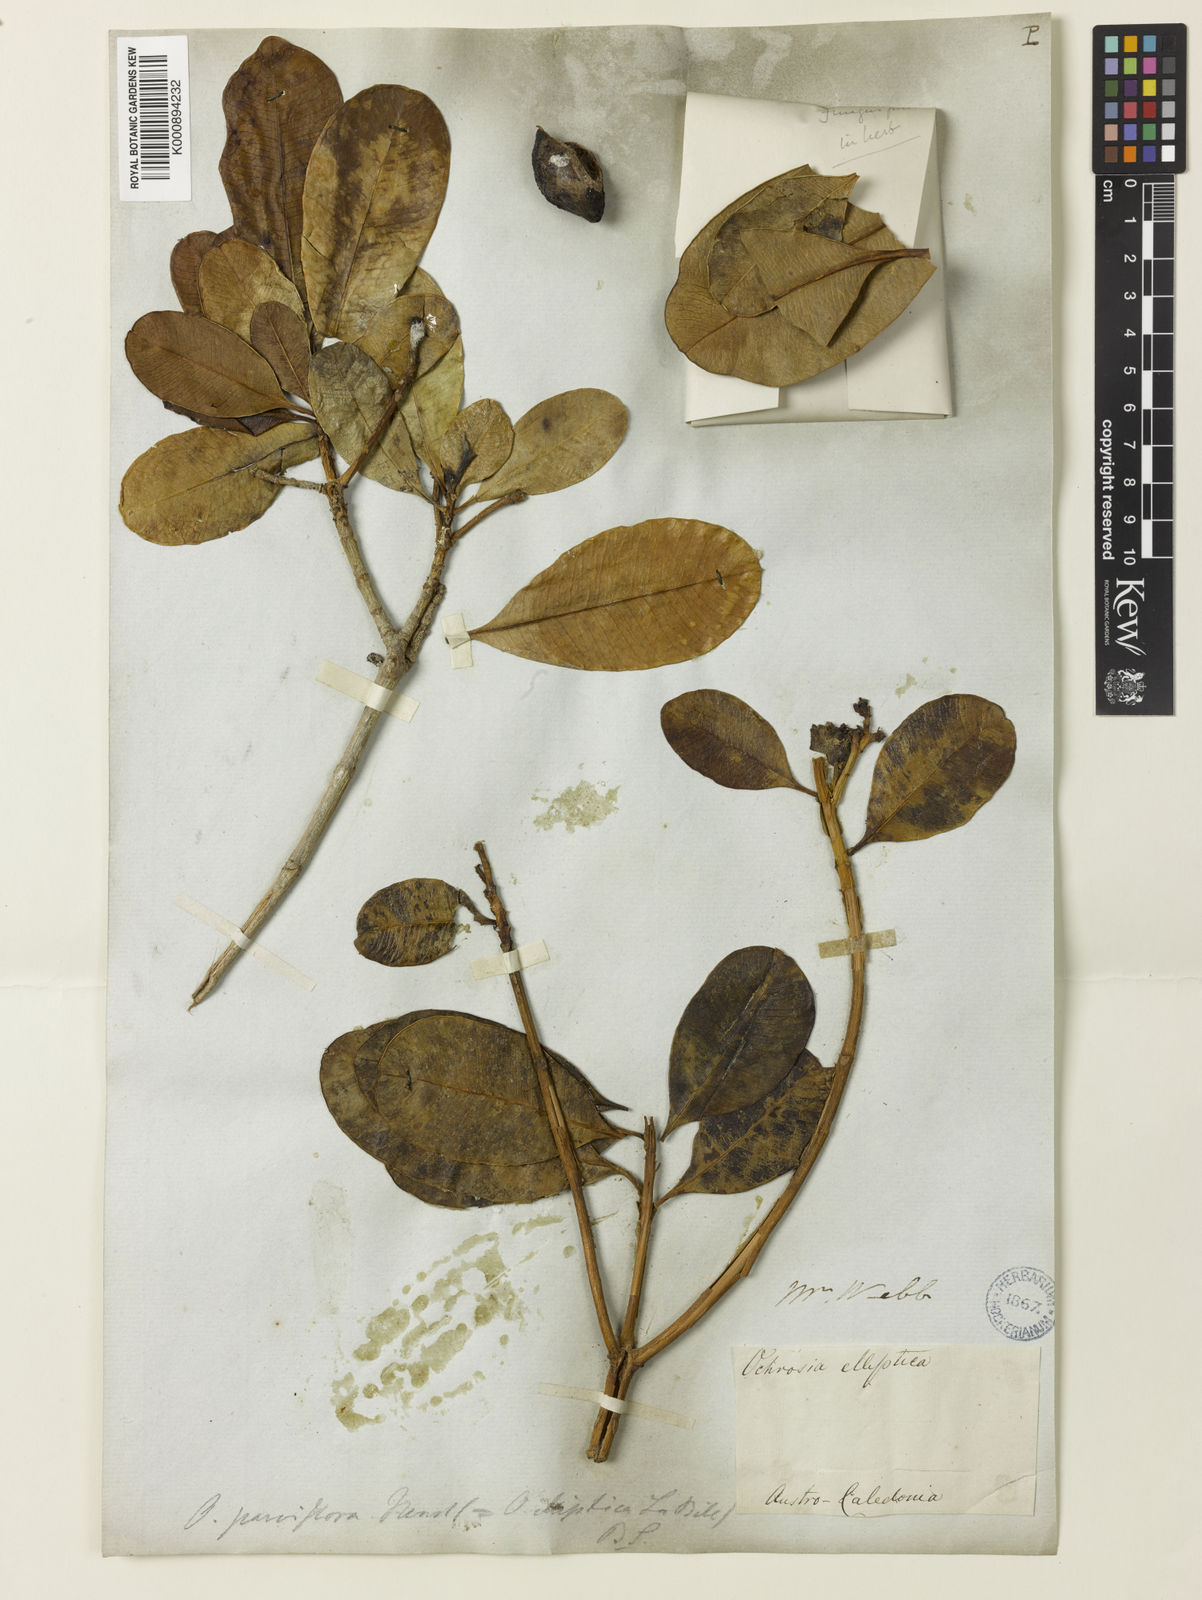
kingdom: Plantae
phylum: Tracheophyta
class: Magnoliopsida
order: Gentianales
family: Apocynaceae
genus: Ochrosia
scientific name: Ochrosia elliptica
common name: Elliptic yellowwood
